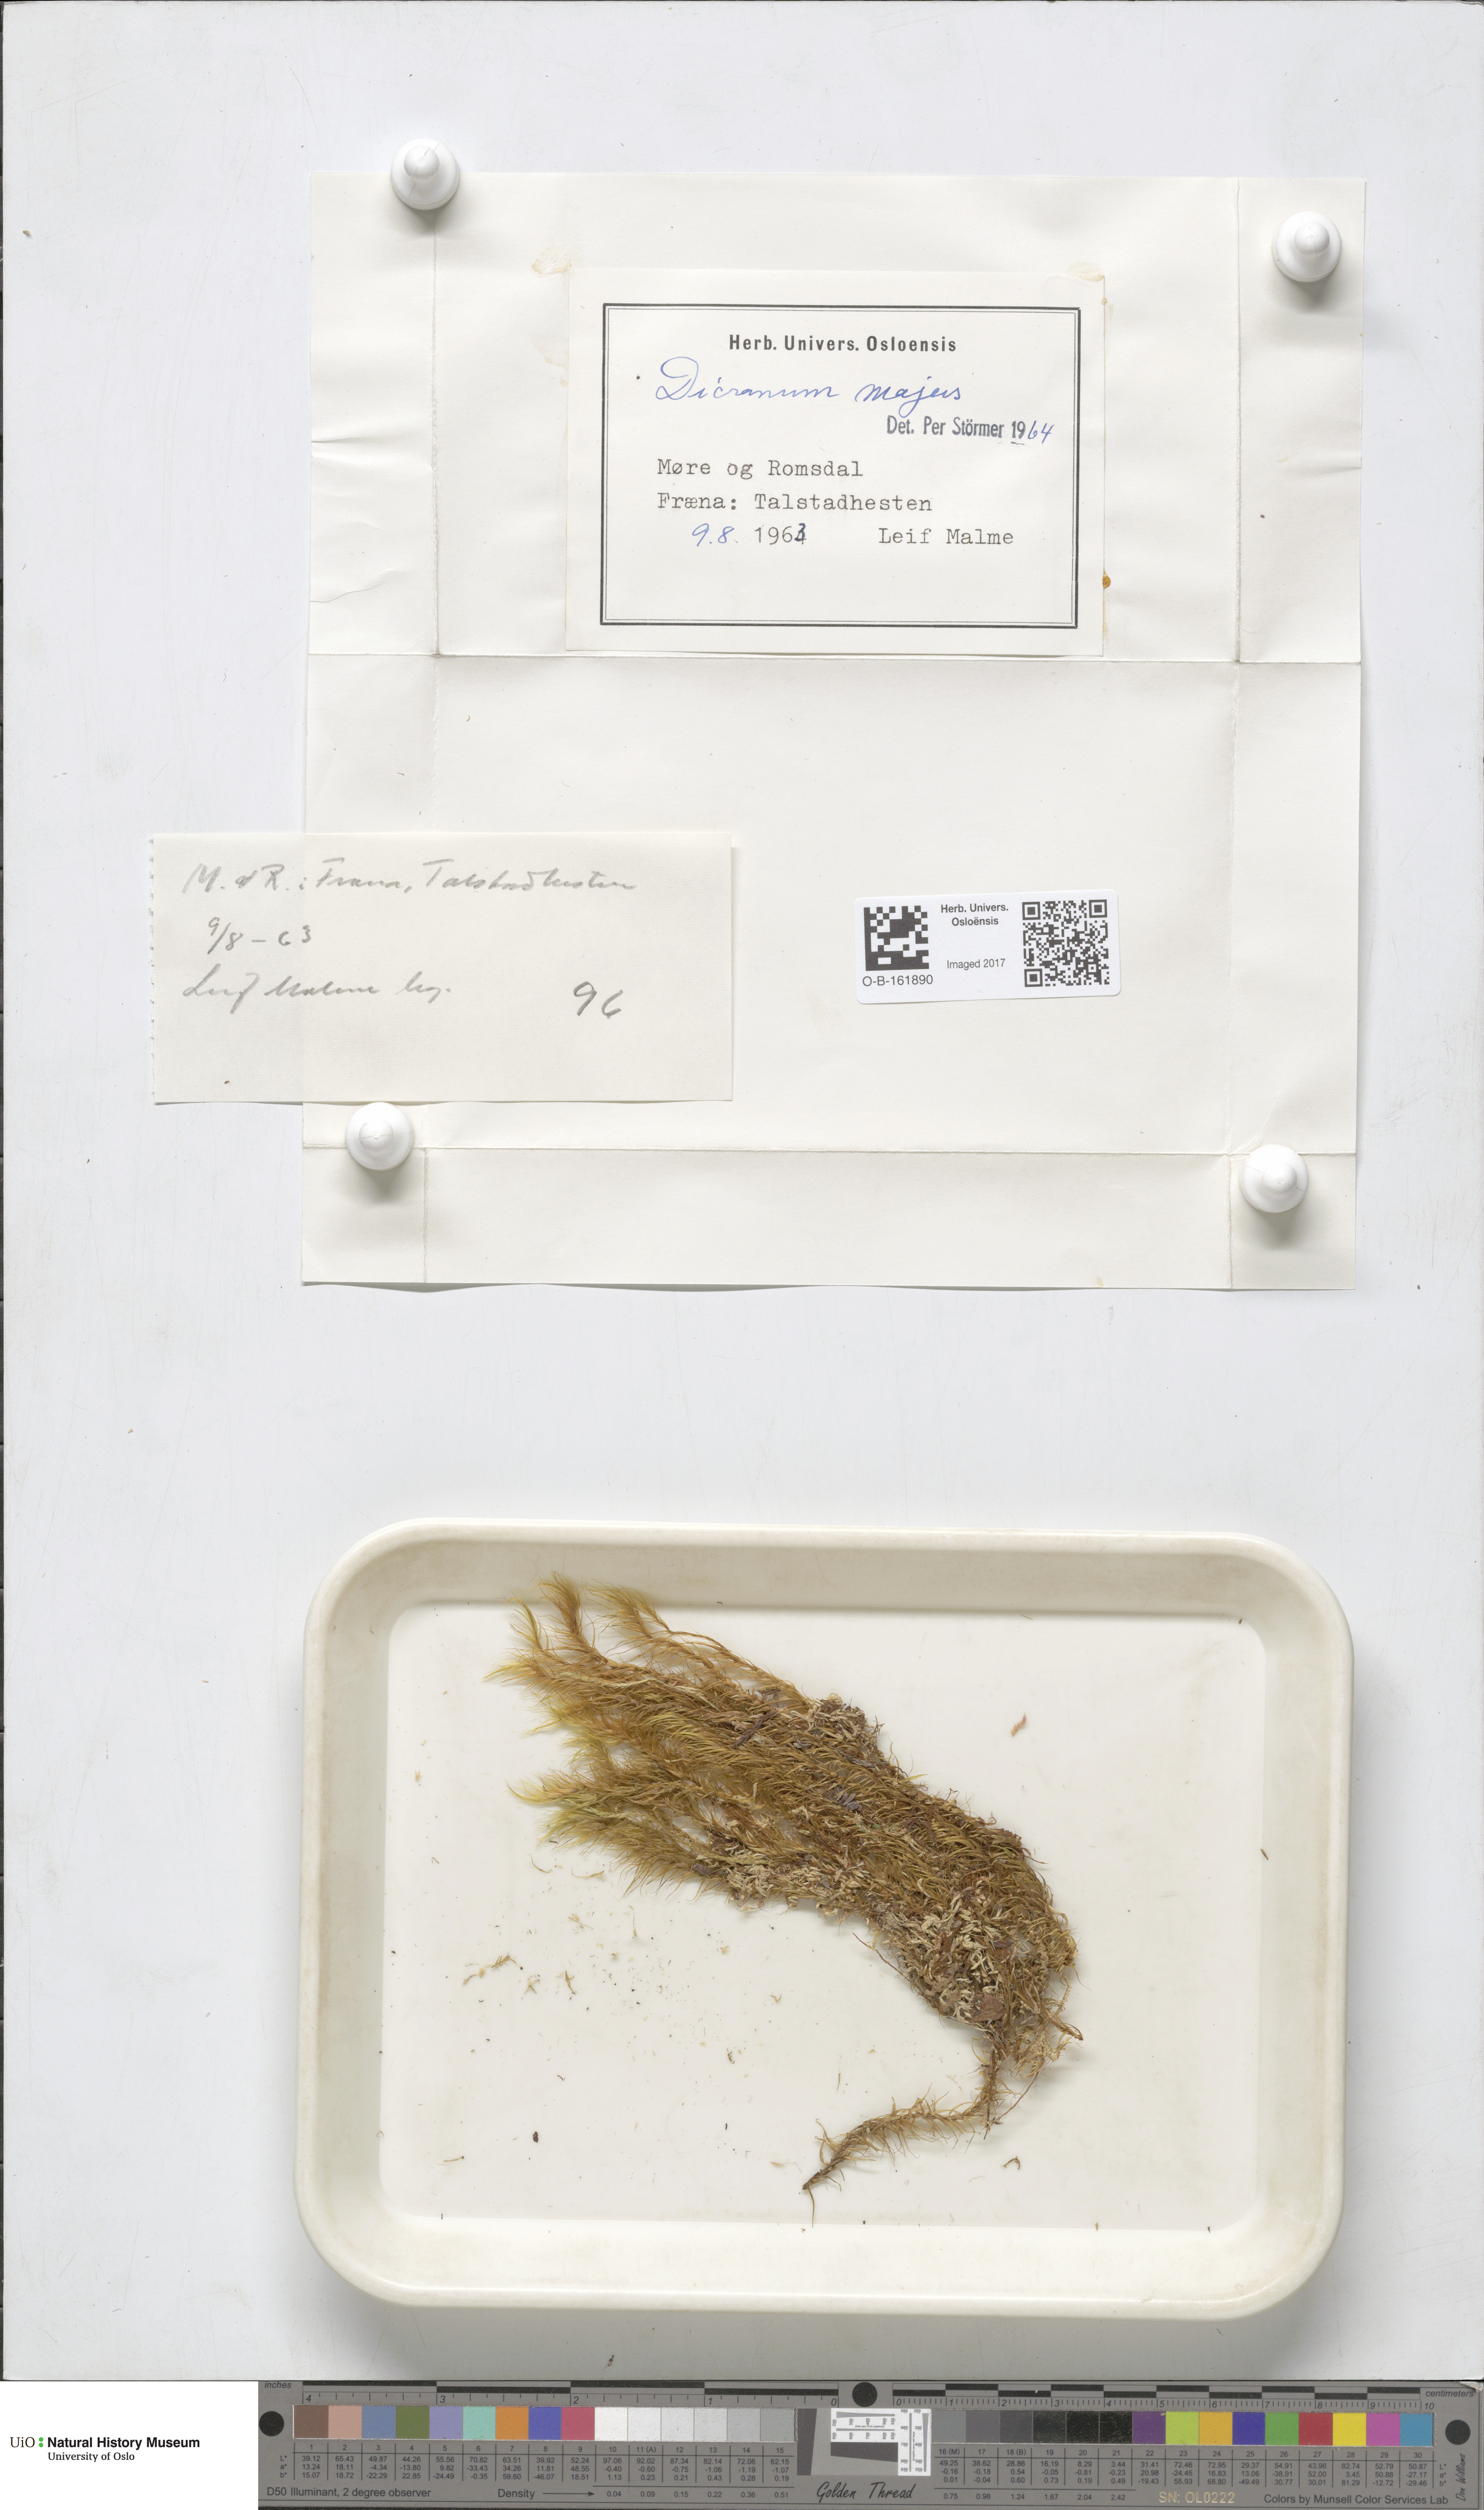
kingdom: Plantae
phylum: Bryophyta
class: Bryopsida
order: Dicranales
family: Dicranaceae
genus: Dicranum
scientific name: Dicranum majus
